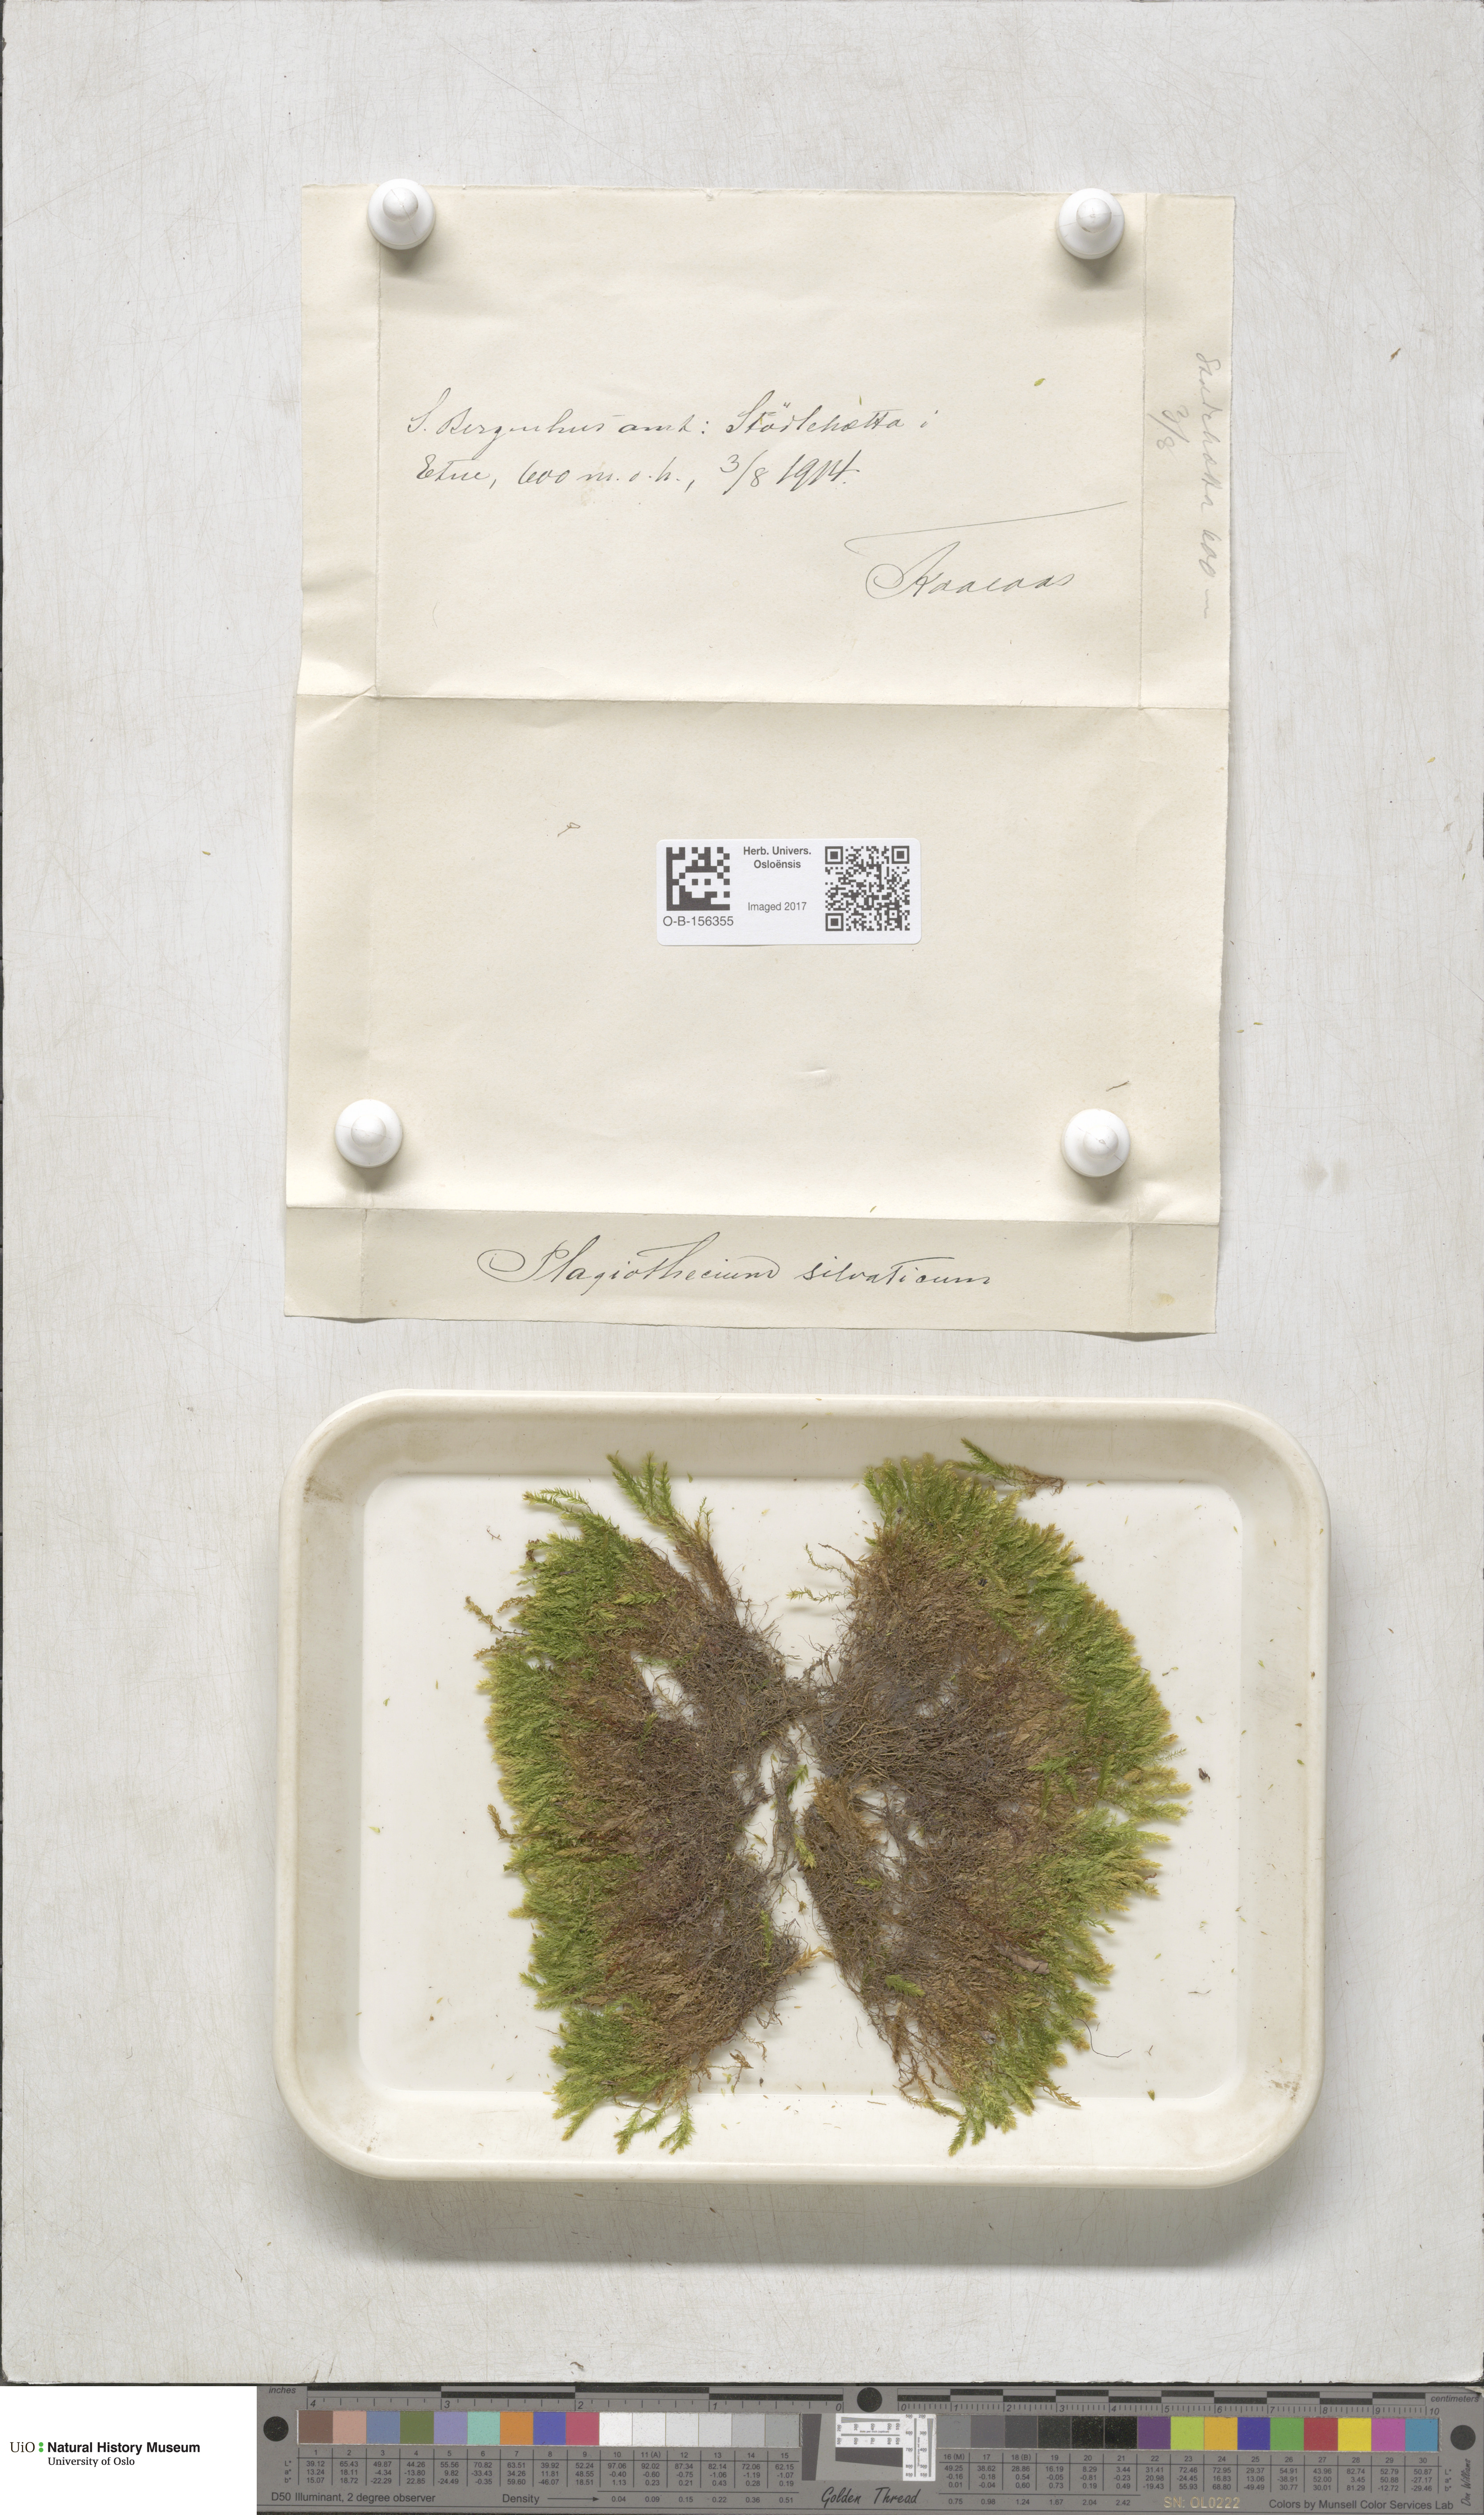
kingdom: Plantae
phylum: Bryophyta
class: Bryopsida
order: Hypnales
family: Plagiotheciaceae
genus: Plagiothecium
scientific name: Plagiothecium nemorale
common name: Woodsy silk-moss
